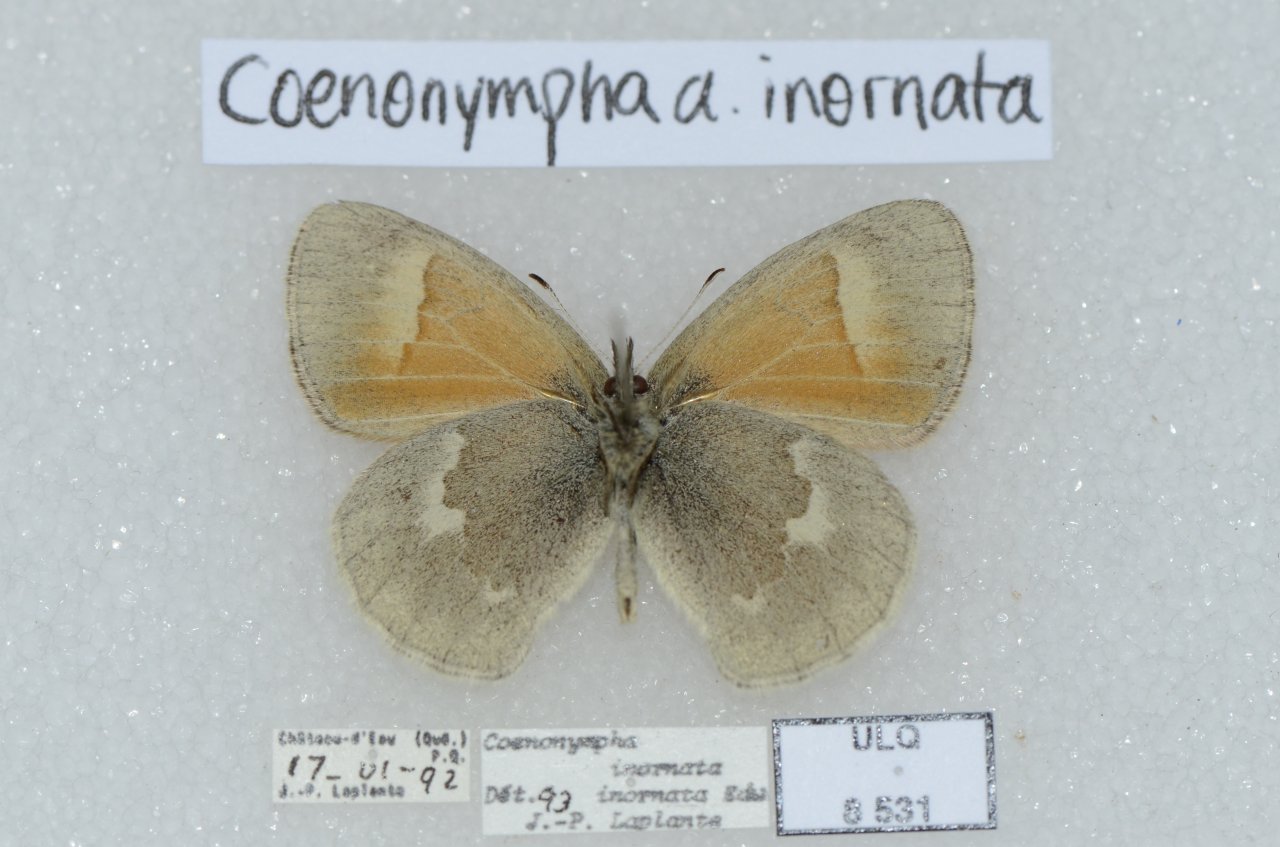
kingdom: Animalia
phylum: Arthropoda
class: Insecta
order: Lepidoptera
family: Nymphalidae
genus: Coenonympha
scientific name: Coenonympha tullia
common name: Large Heath
